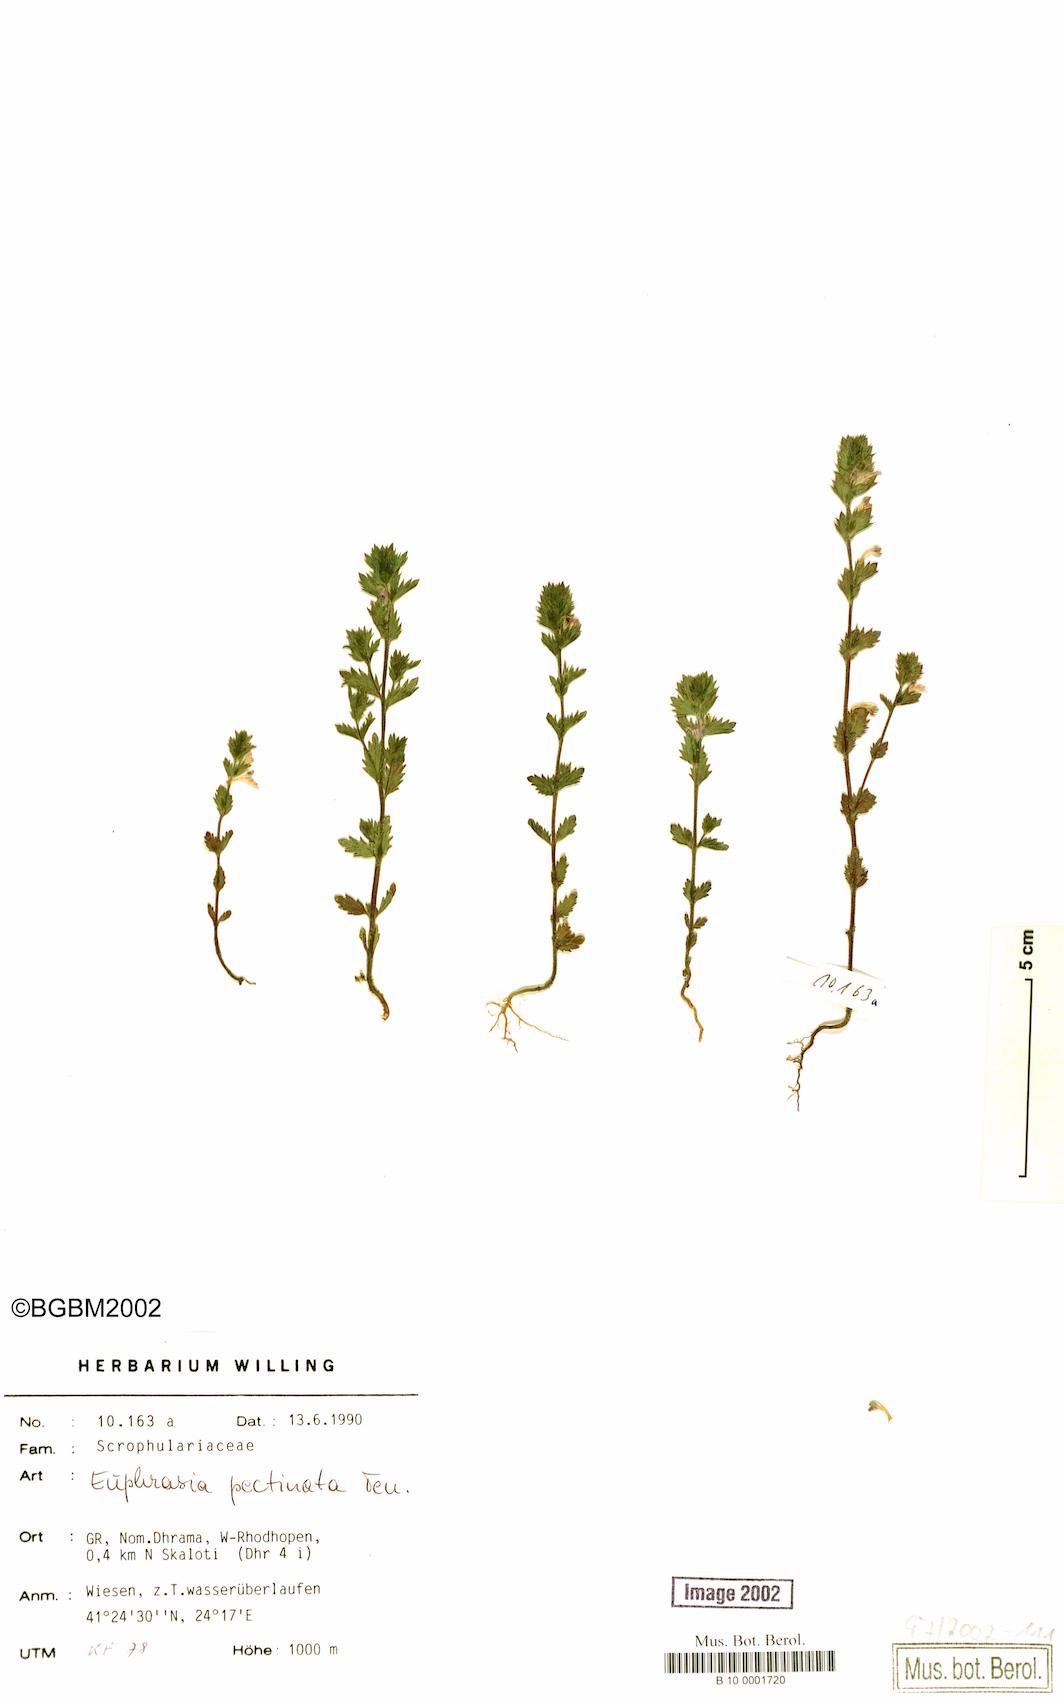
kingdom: Plantae
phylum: Tracheophyta
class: Magnoliopsida
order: Lamiales
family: Orobanchaceae
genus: Euphrasia
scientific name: Euphrasia pectinata
